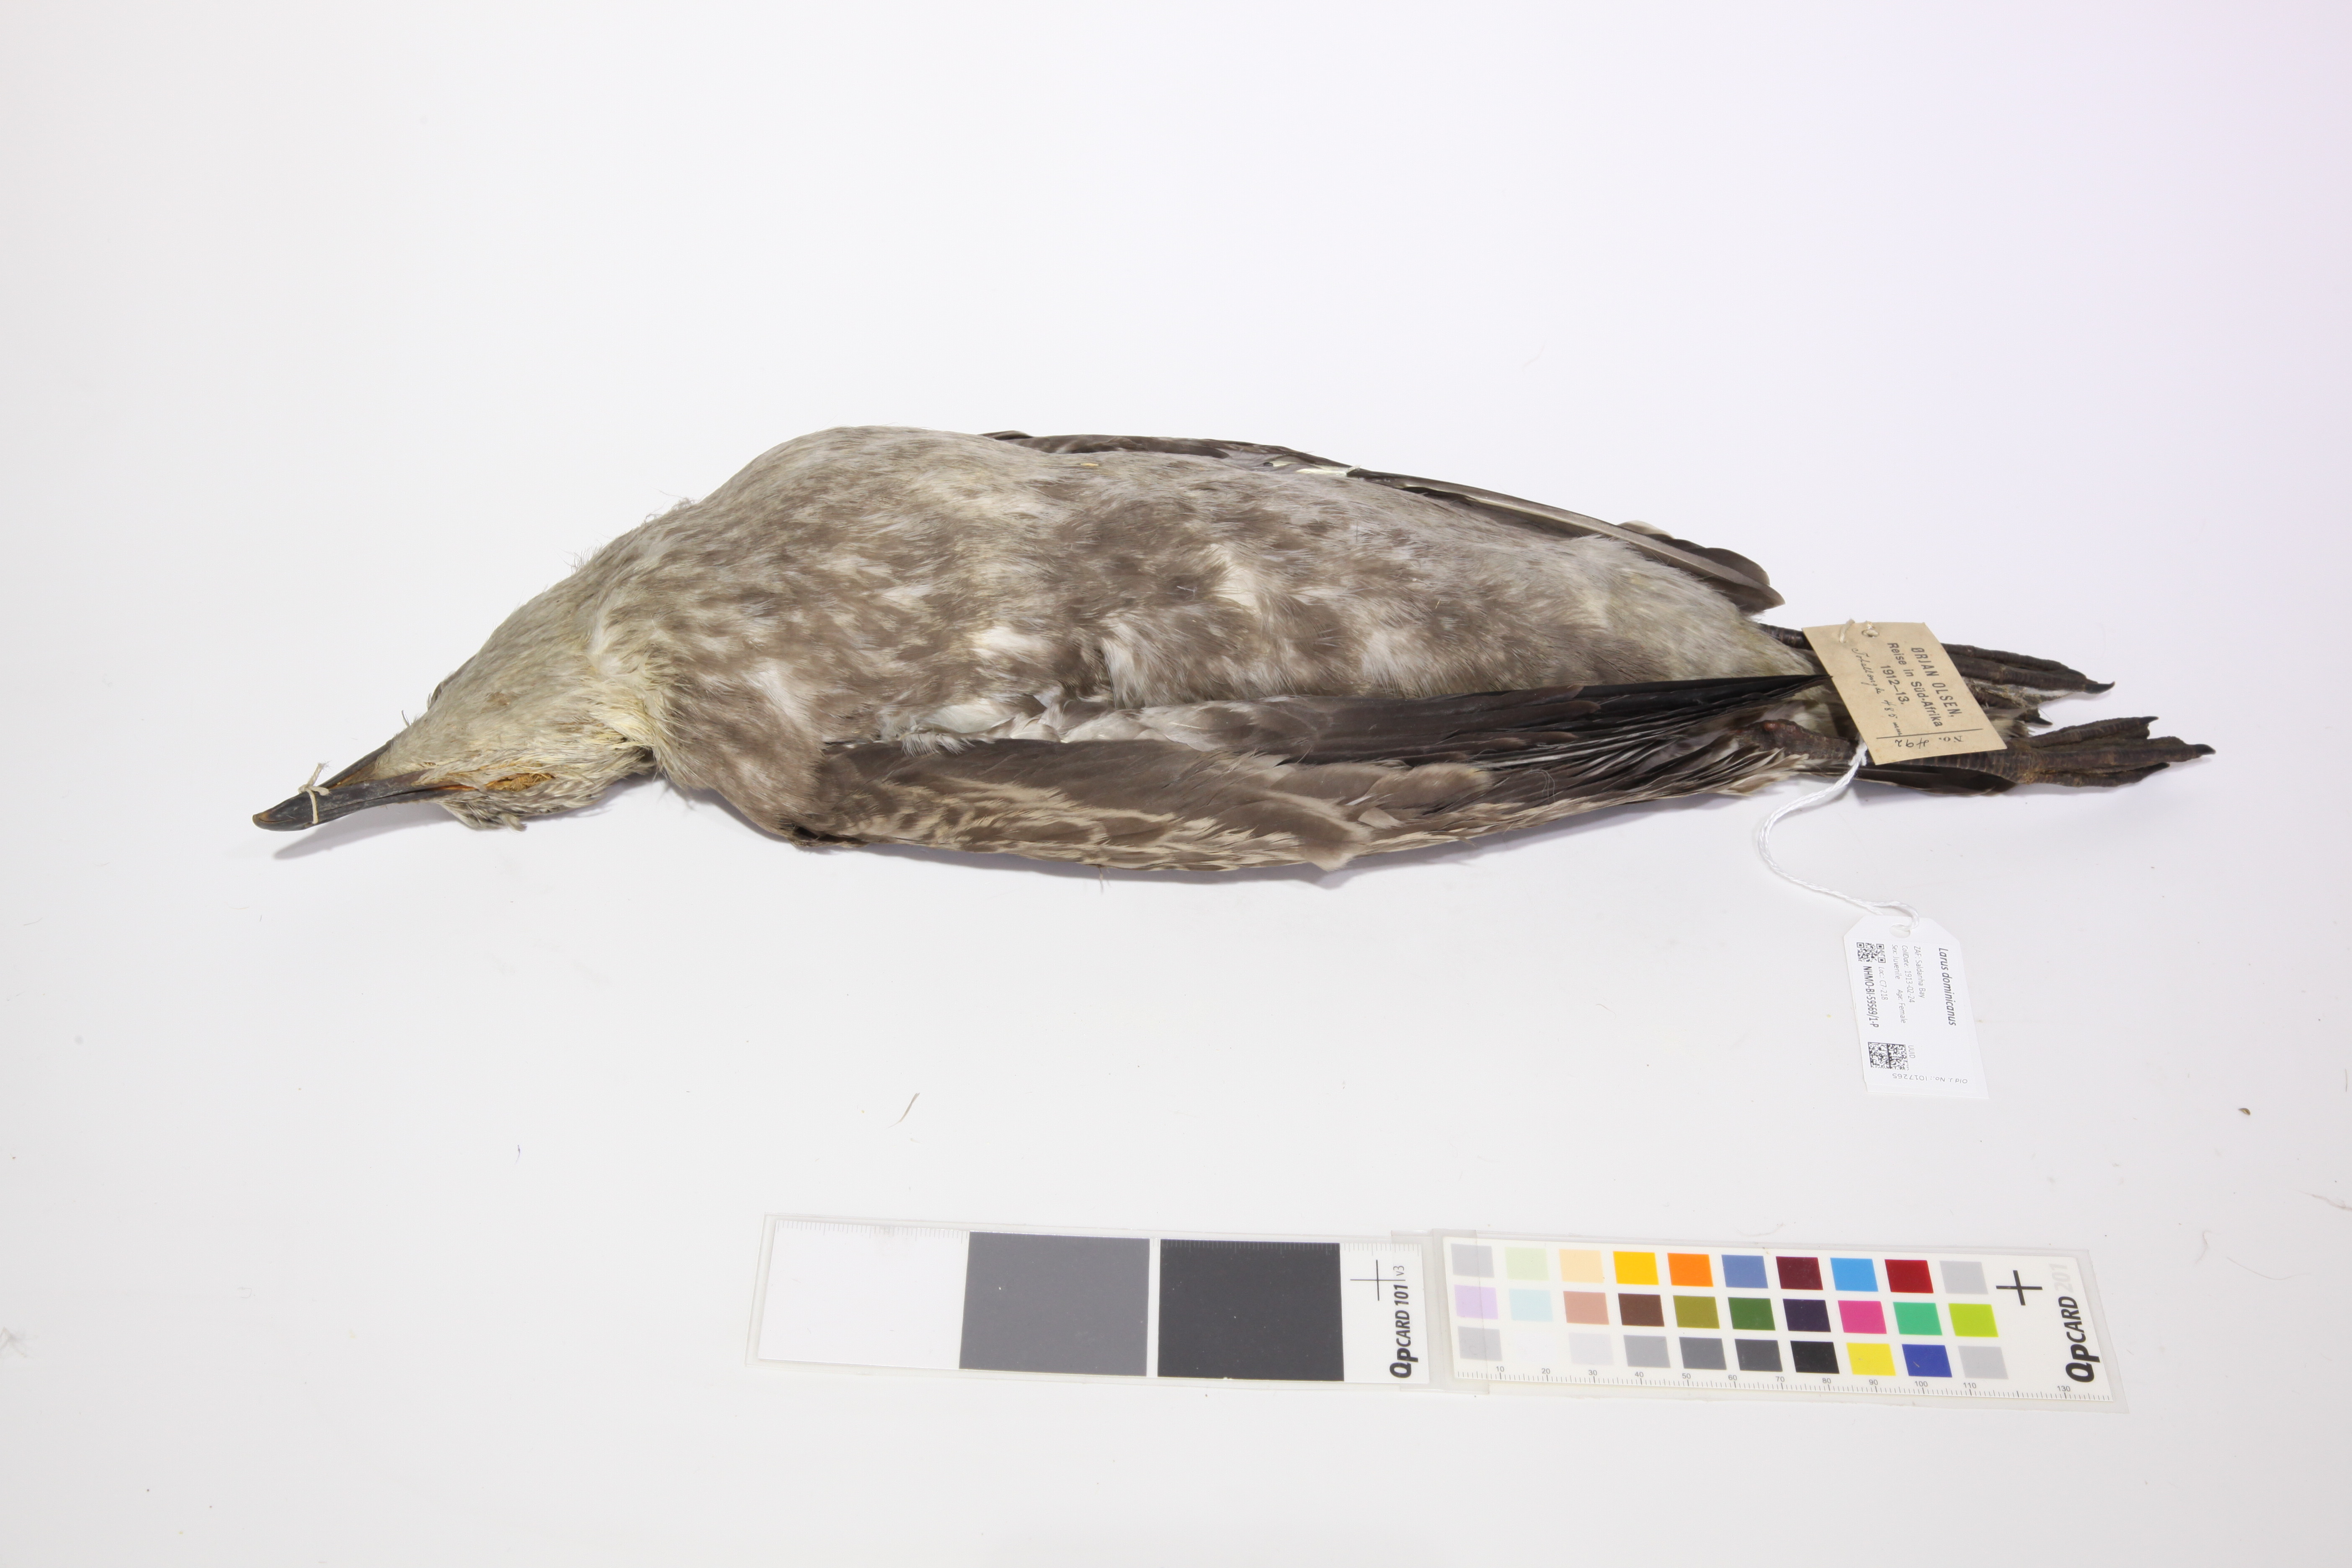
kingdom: Animalia
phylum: Chordata
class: Aves
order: Charadriiformes
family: Laridae
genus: Larus
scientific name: Larus dominicanus
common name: Kelp gull
